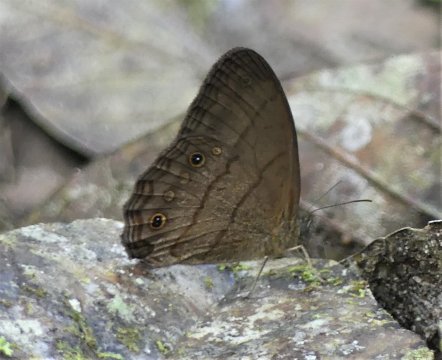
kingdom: Animalia
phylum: Arthropoda
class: Insecta
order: Lepidoptera
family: Nymphalidae
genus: Taygetis
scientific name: Taygetis
